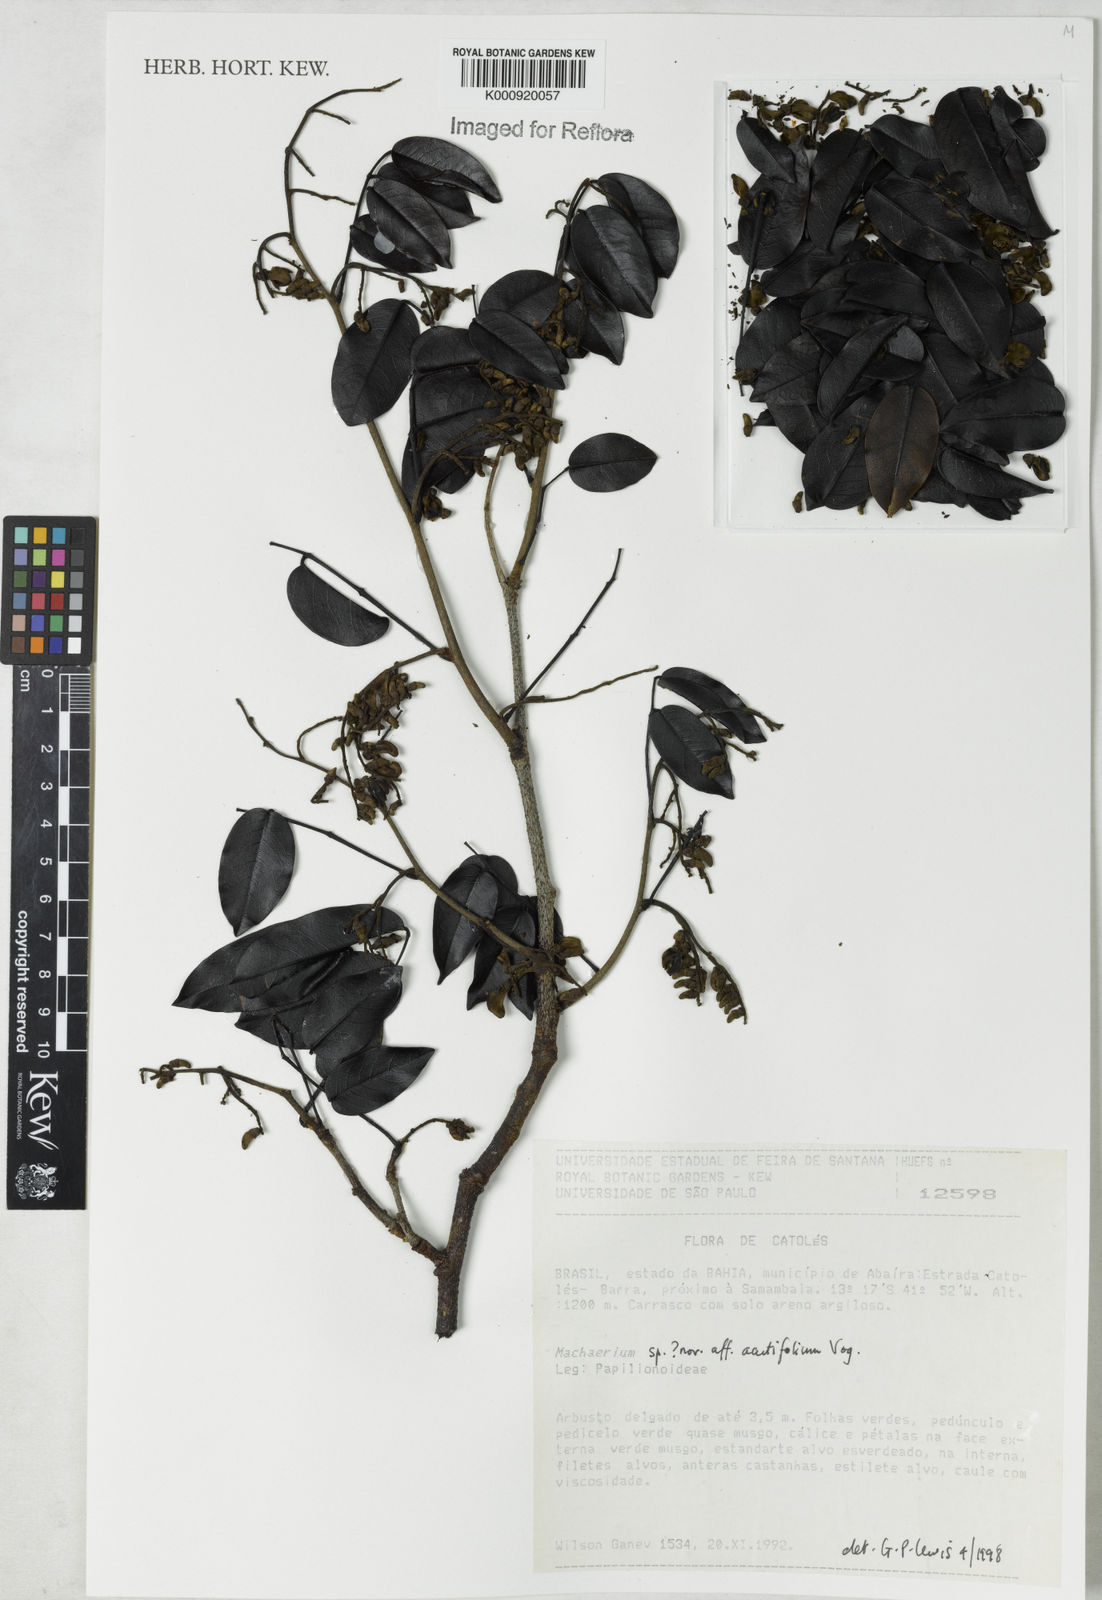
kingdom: Plantae
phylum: Tracheophyta
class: Magnoliopsida
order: Fabales
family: Fabaceae
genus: Machaerium
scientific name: Machaerium
